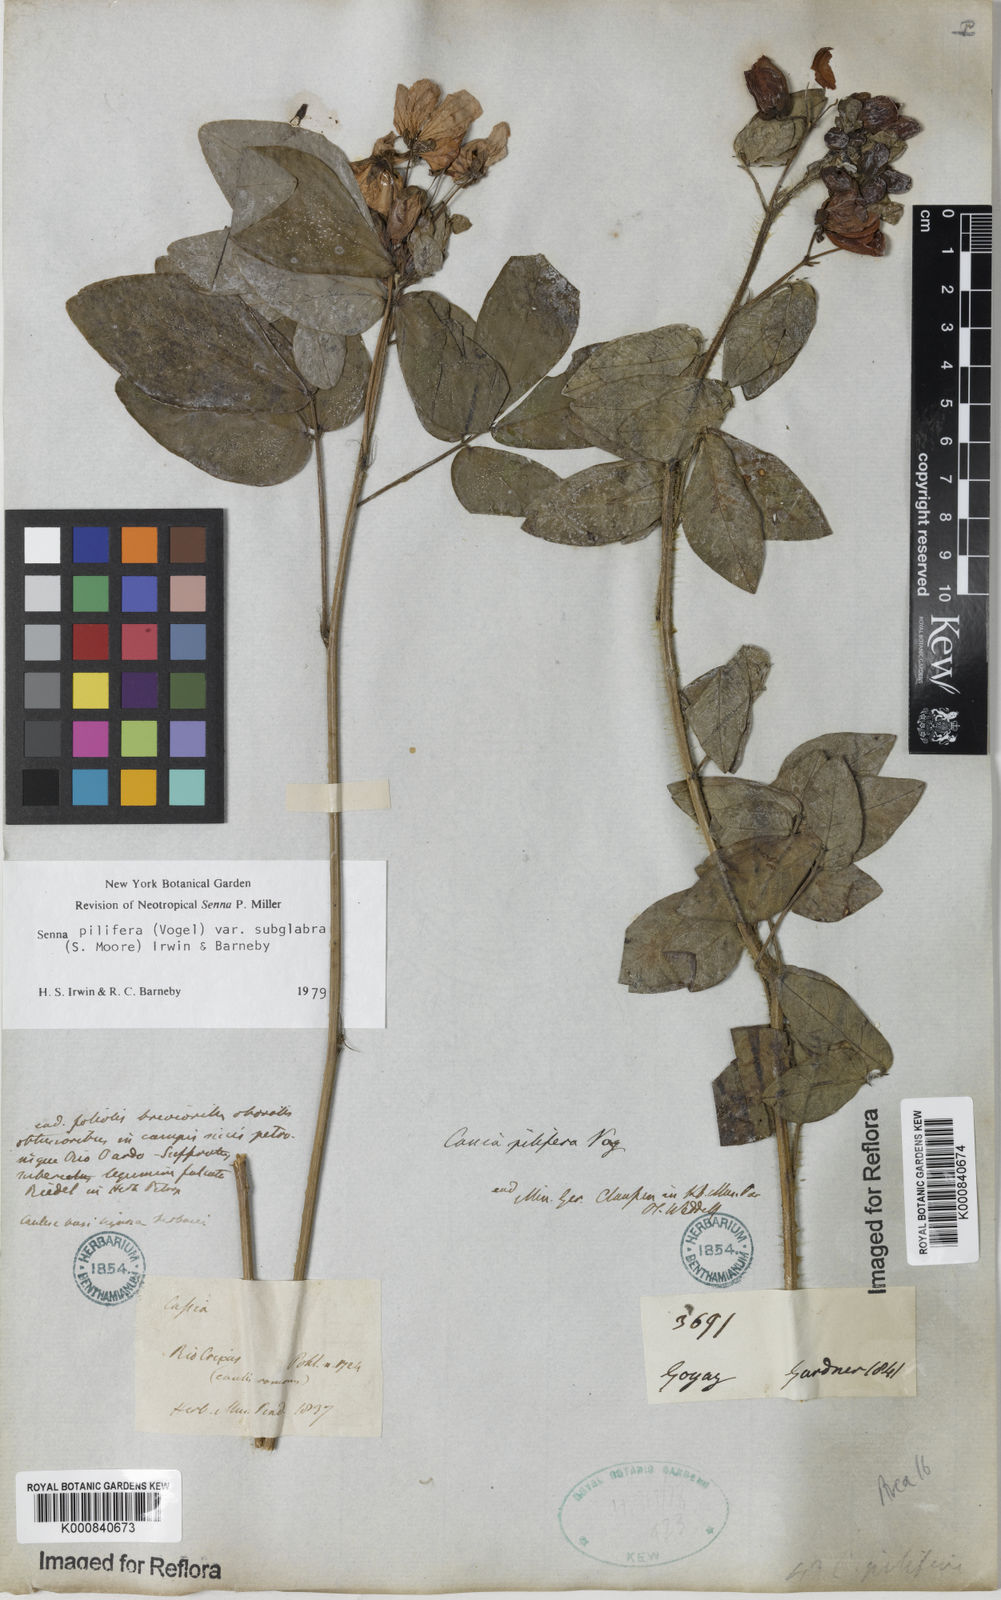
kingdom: Plantae
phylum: Tracheophyta
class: Magnoliopsida
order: Fabales
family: Fabaceae
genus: Senna
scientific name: Senna pilifera
